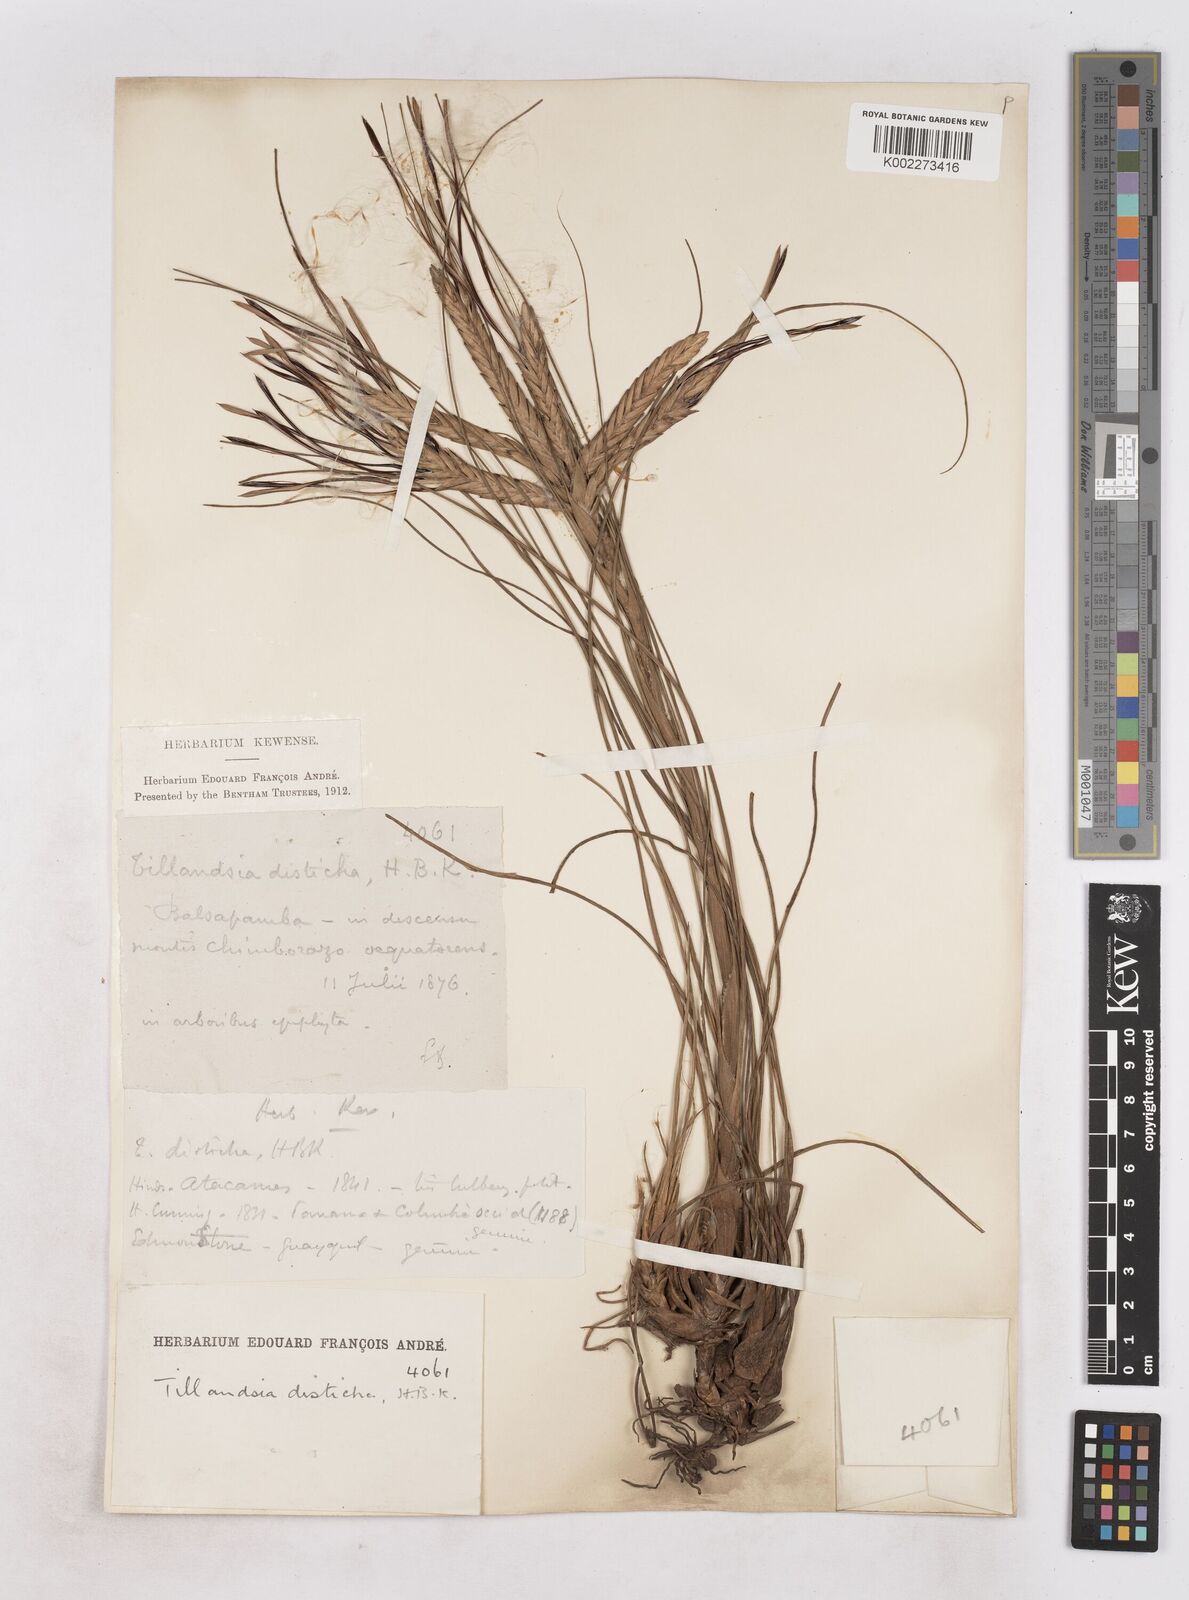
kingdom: Plantae
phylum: Tracheophyta
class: Liliopsida
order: Poales
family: Bromeliaceae
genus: Tillandsia
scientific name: Tillandsia
